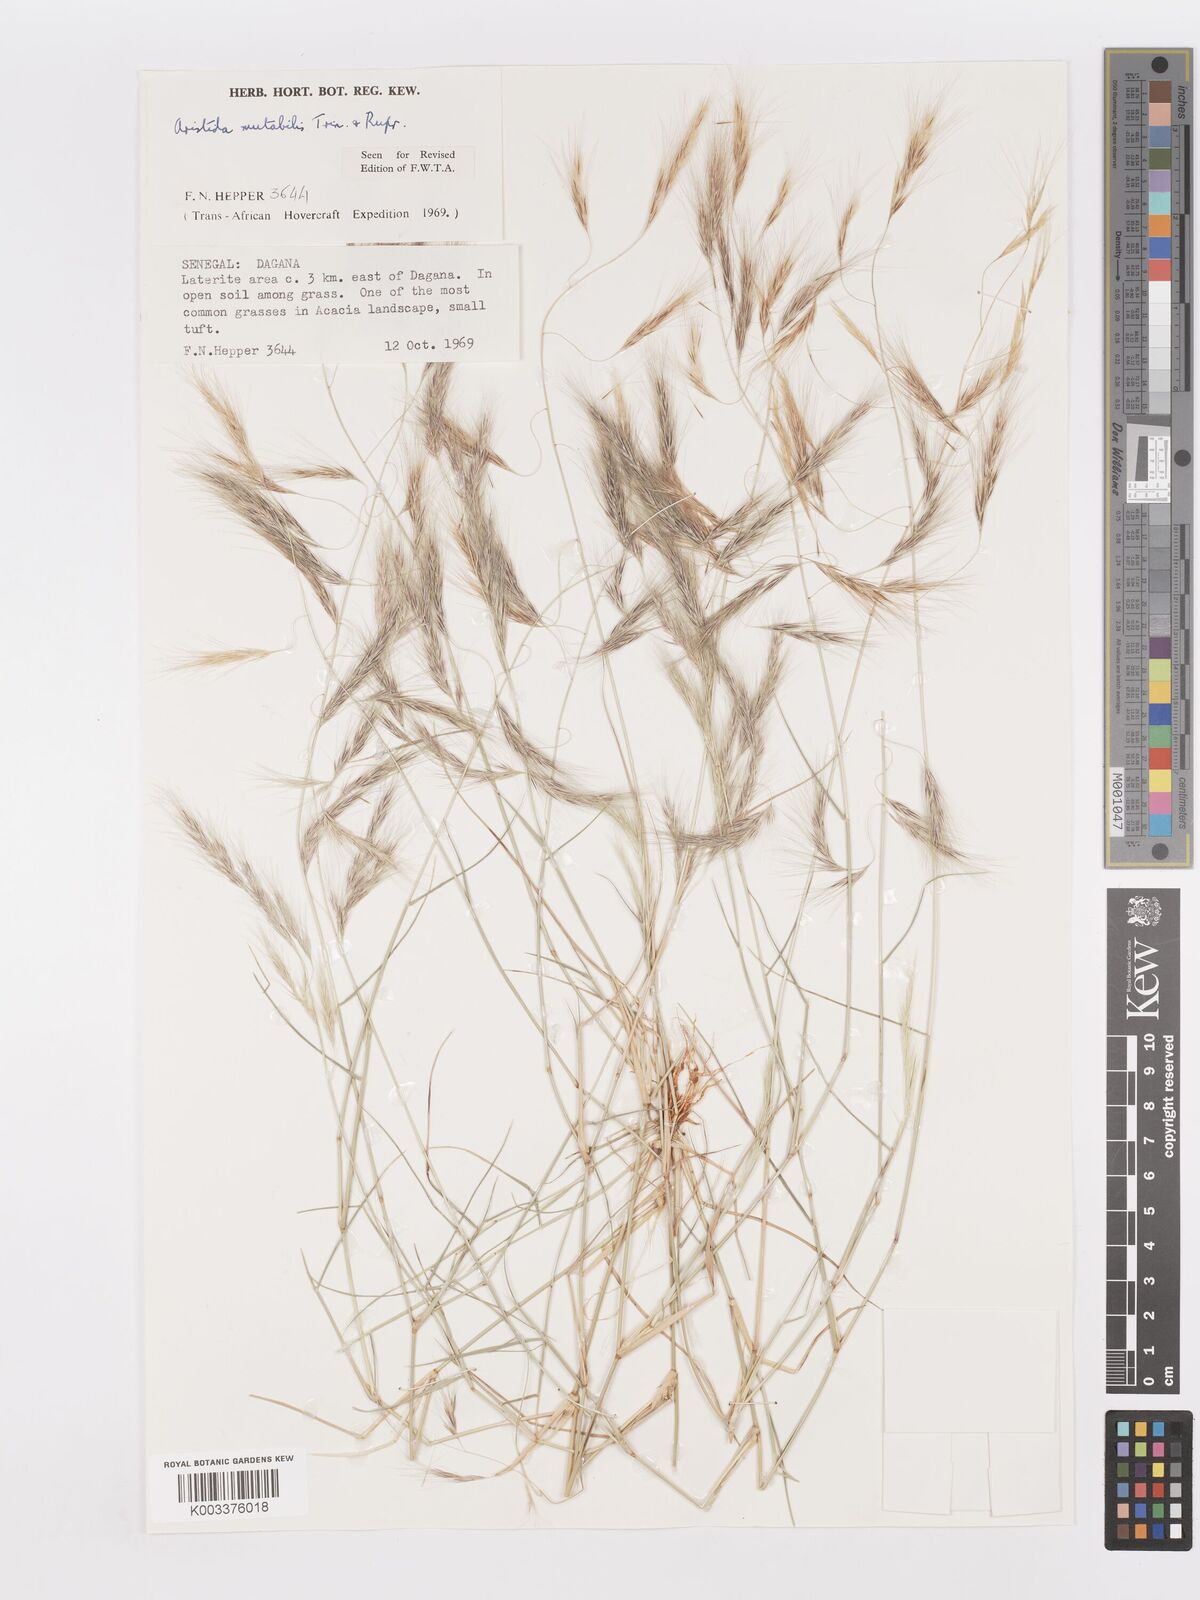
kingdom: Plantae
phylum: Tracheophyta
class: Liliopsida
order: Poales
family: Poaceae
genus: Aristida
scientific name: Aristida mutabilis
